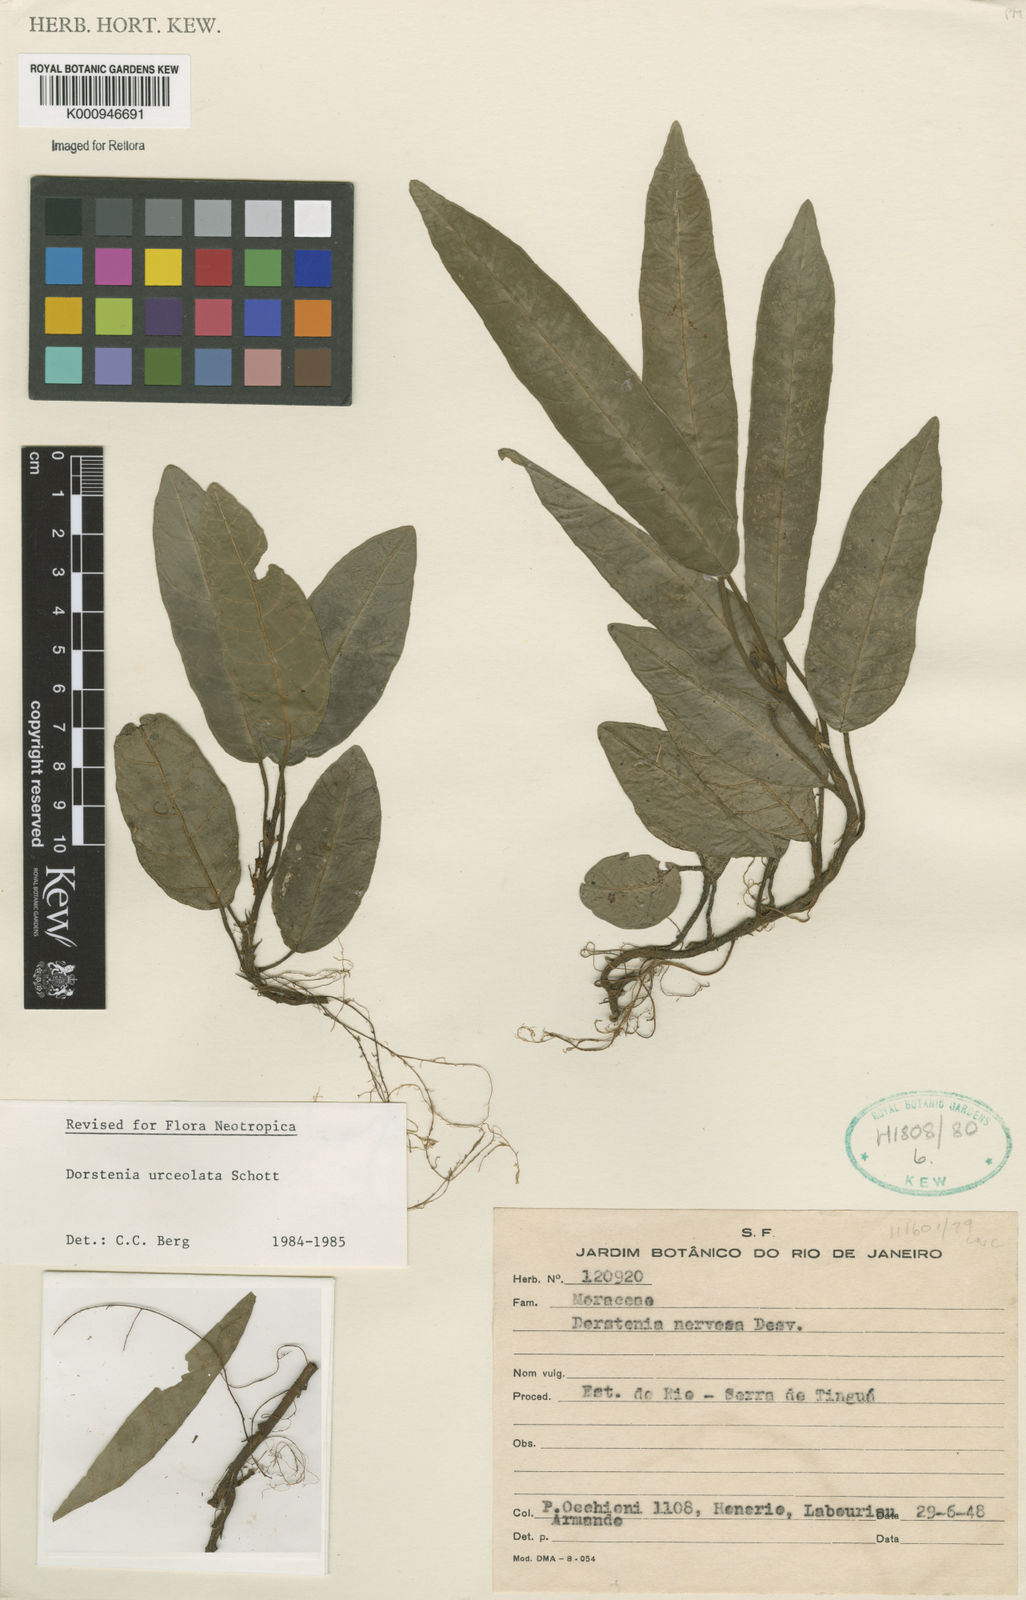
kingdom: Plantae
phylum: Tracheophyta
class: Magnoliopsida
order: Rosales
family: Moraceae
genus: Dorstenia
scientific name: Dorstenia urceolata
